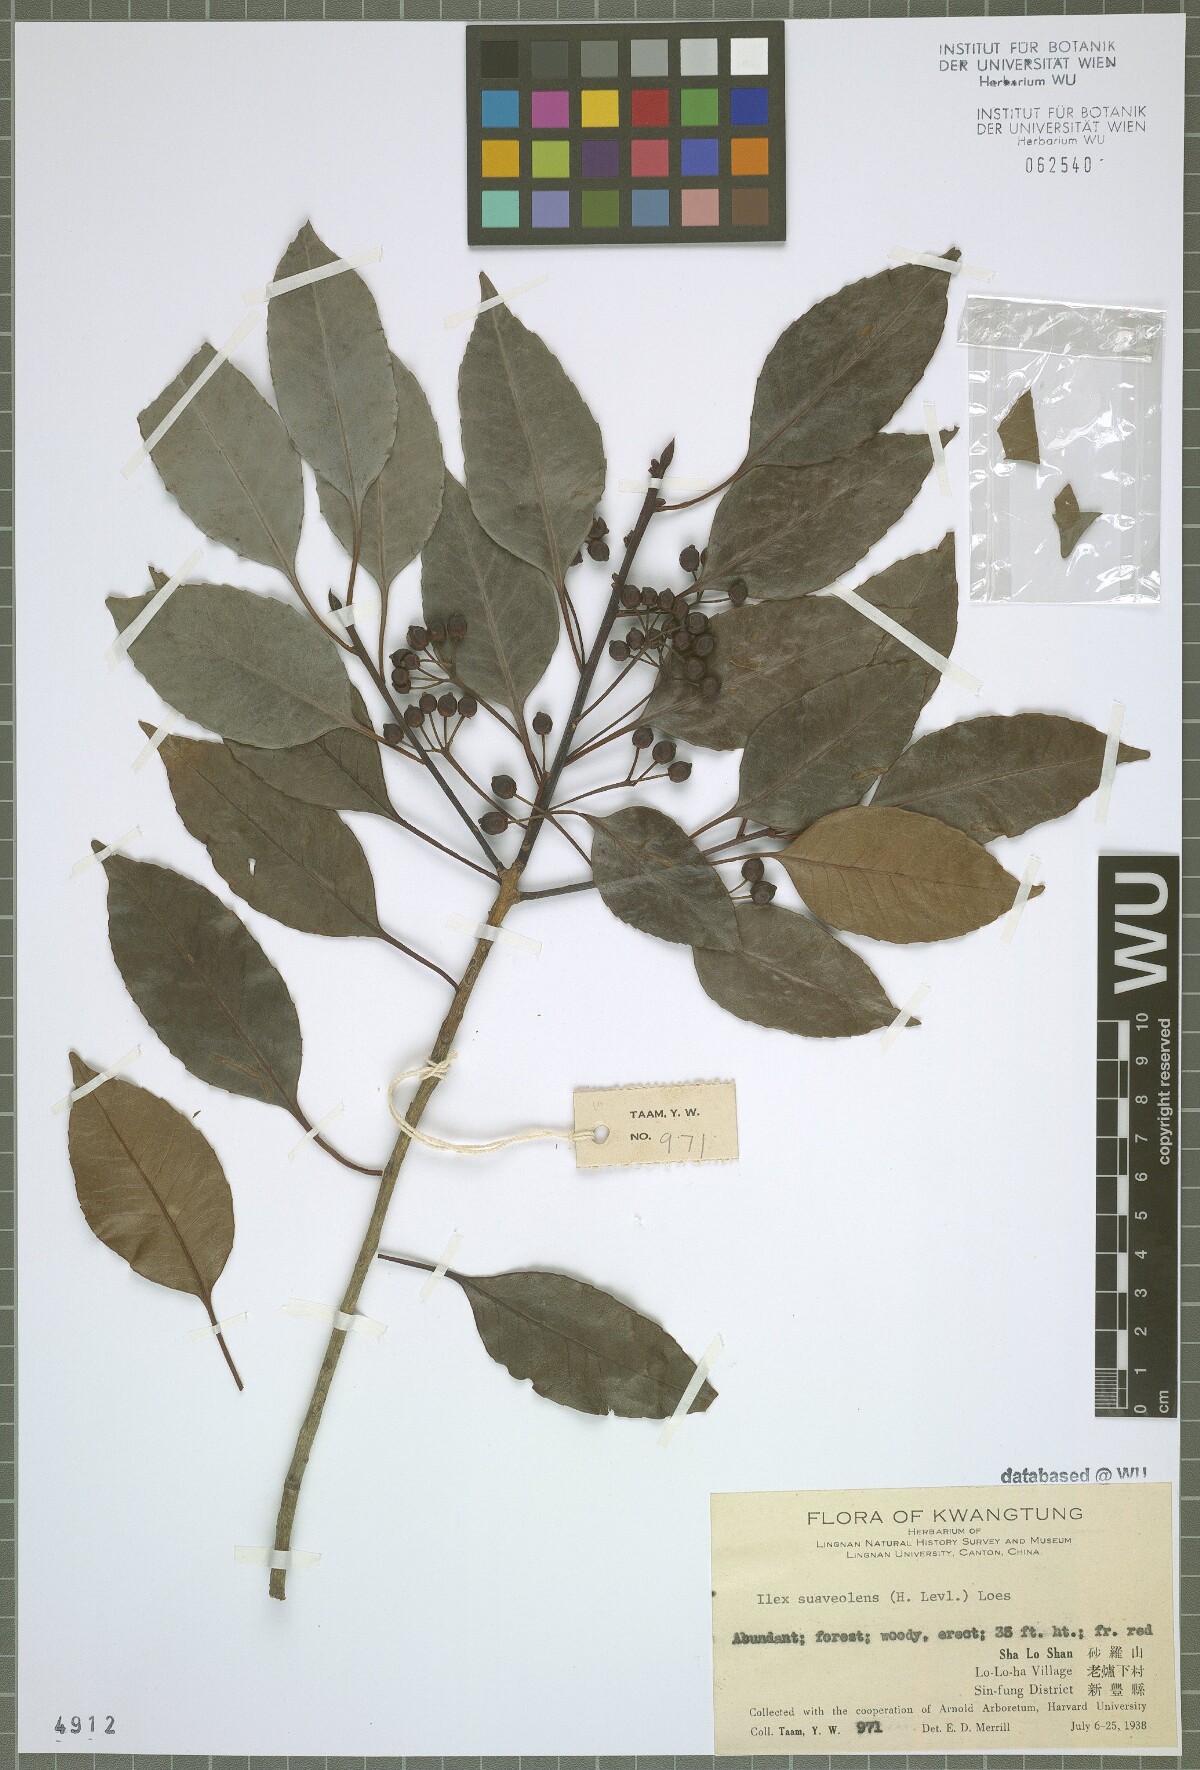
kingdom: Plantae
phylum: Tracheophyta
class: Magnoliopsida
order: Aquifoliales
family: Aquifoliaceae
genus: Ilex
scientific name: Ilex suaveolens
